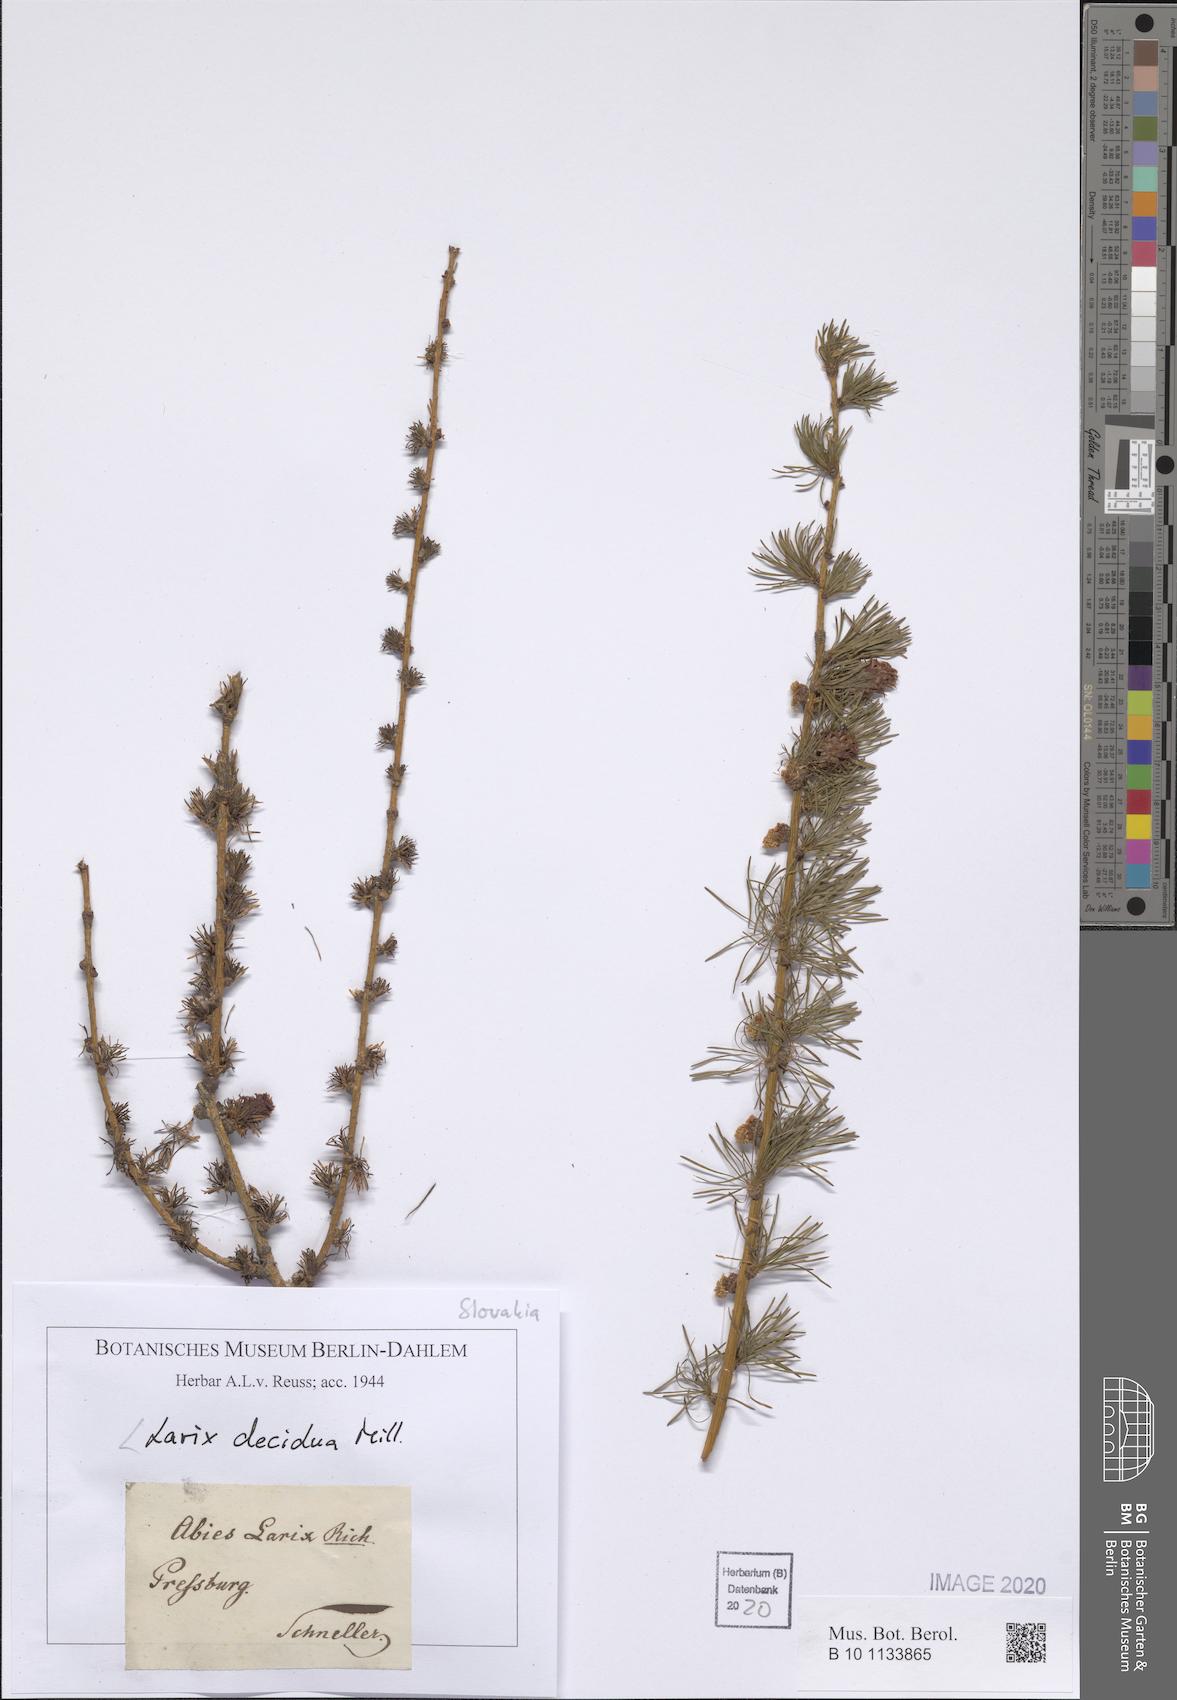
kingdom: Plantae
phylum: Tracheophyta
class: Pinopsida
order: Pinales
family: Pinaceae
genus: Larix
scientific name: Larix decidua
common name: European larch
